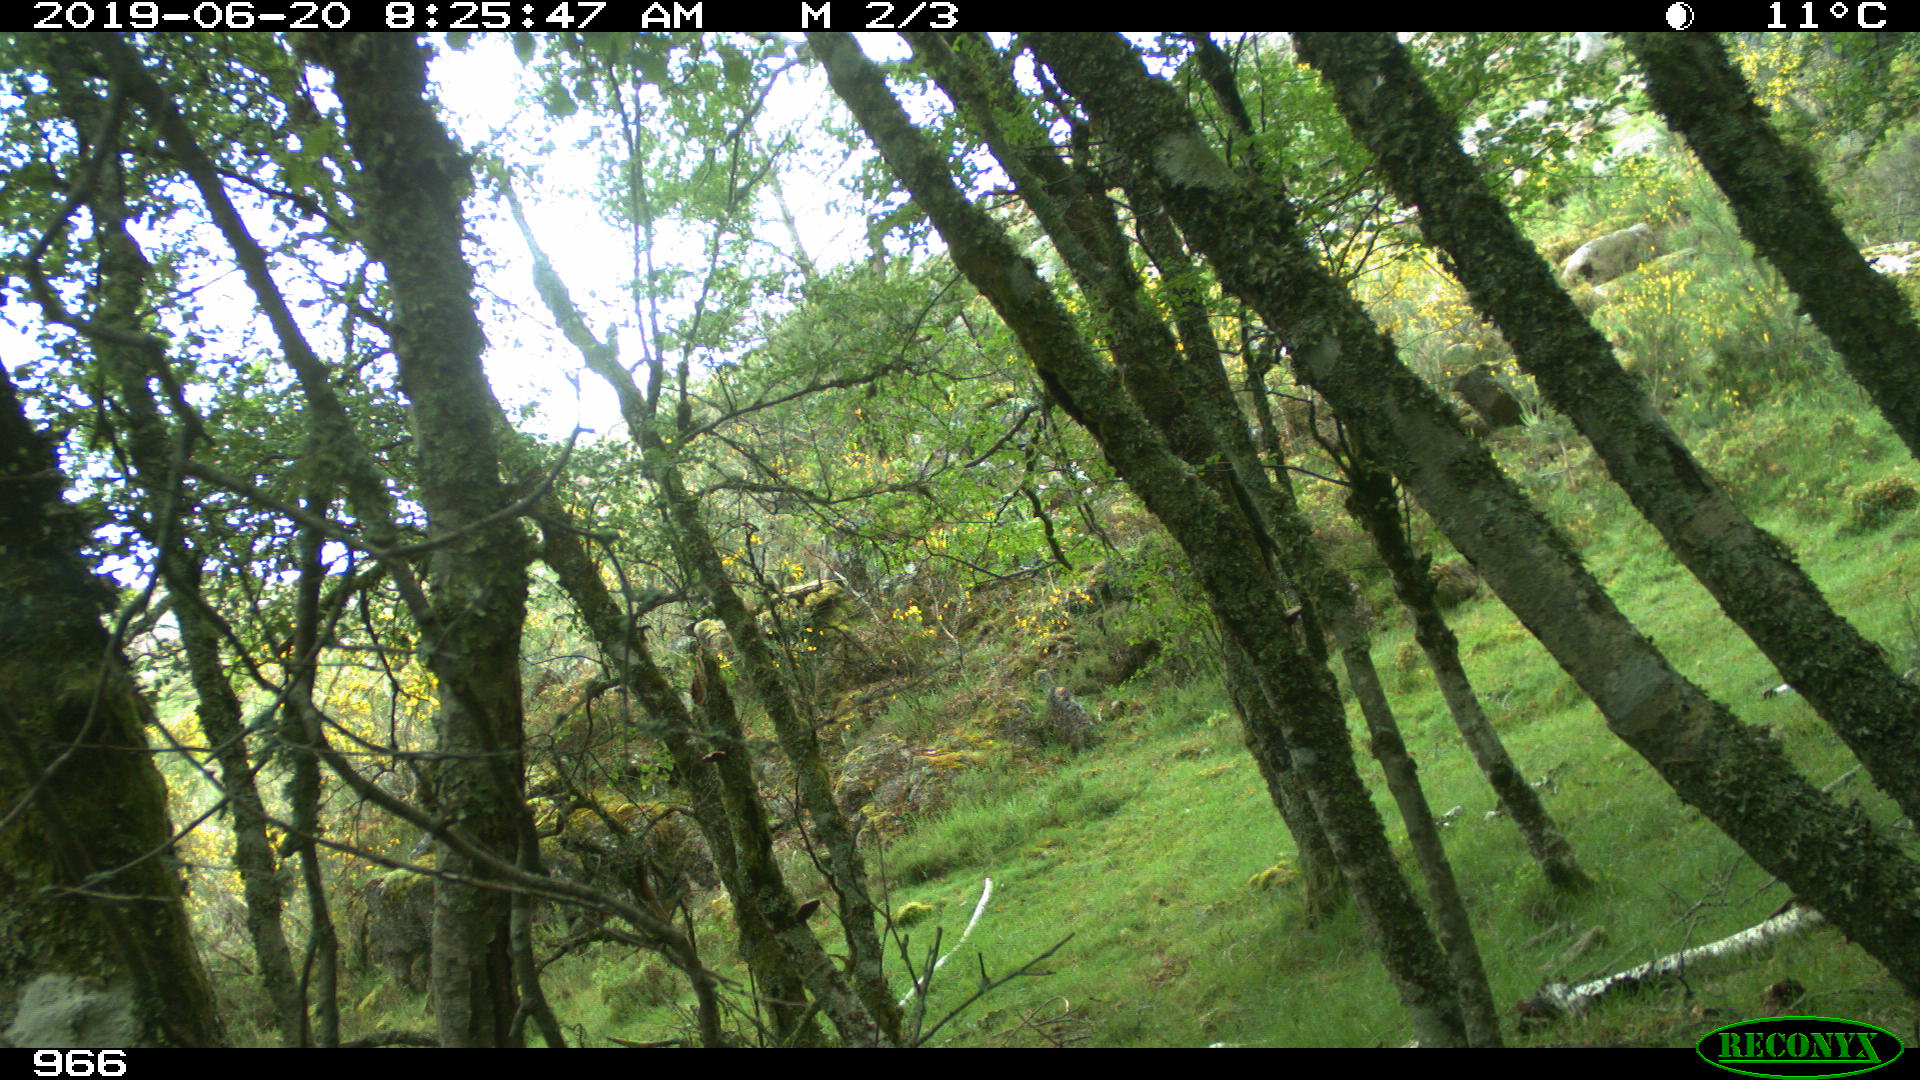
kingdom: Animalia
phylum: Chordata
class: Mammalia
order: Perissodactyla
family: Equidae
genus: Equus
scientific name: Equus caballus
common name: Horse
